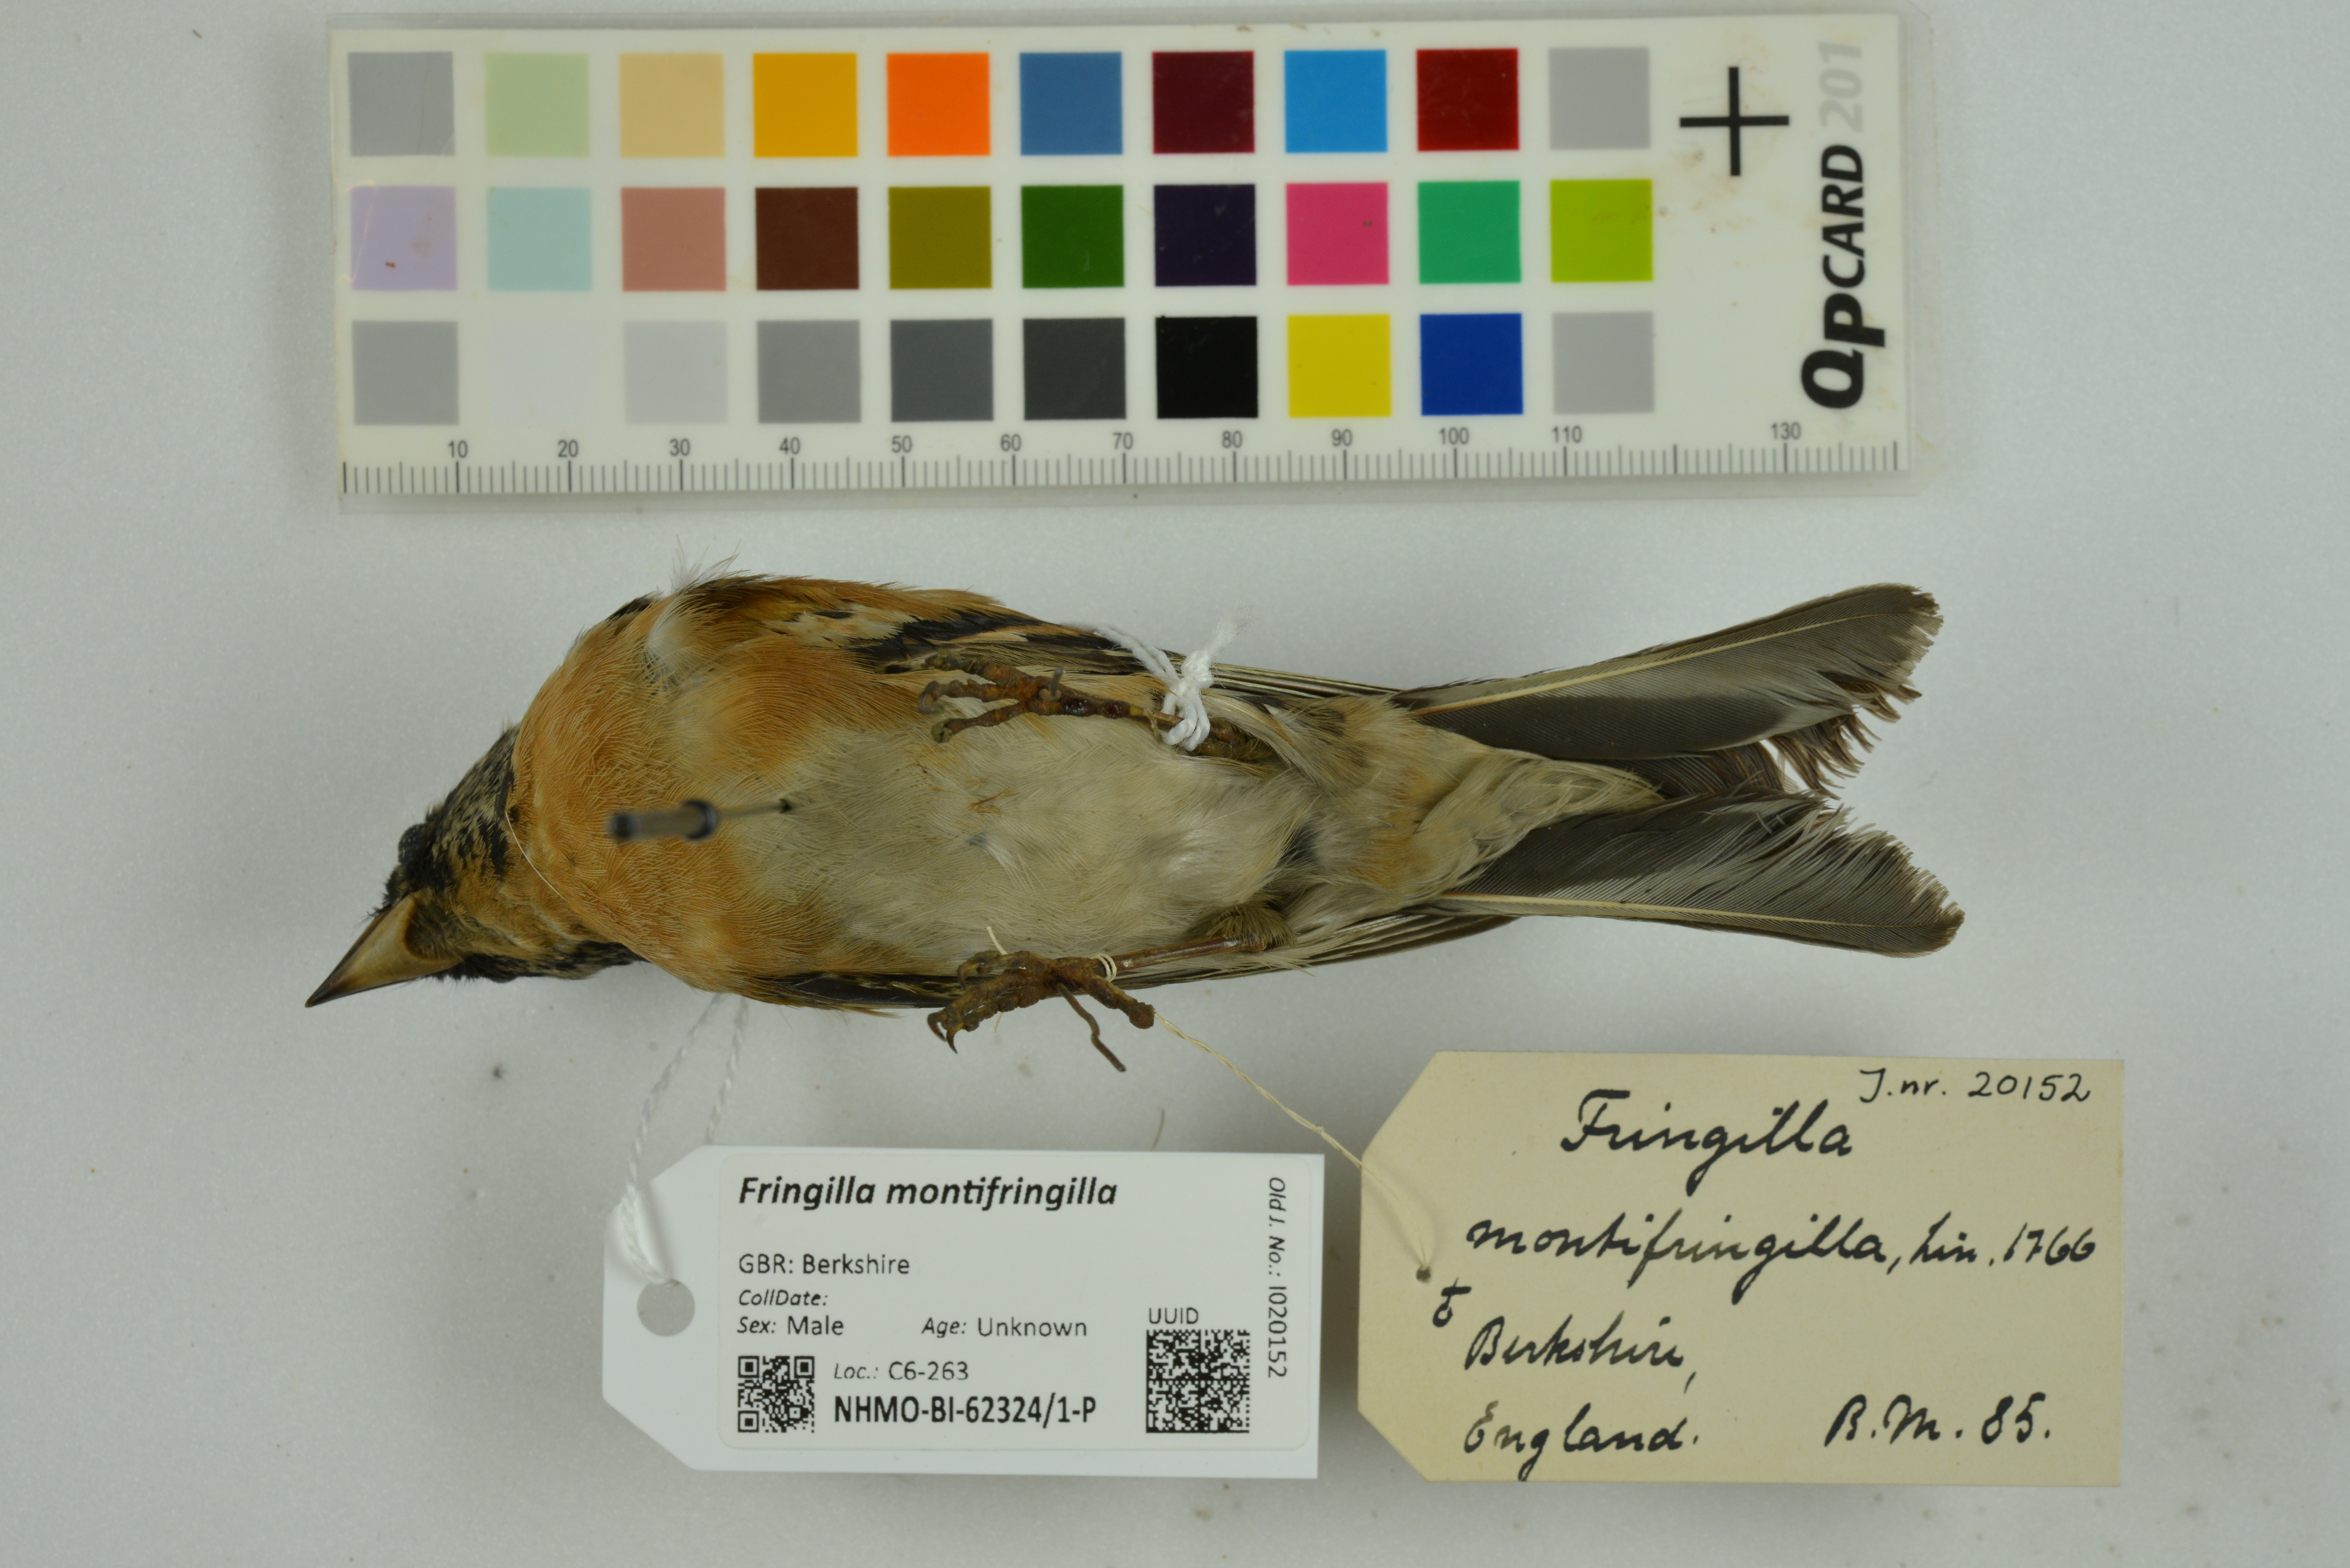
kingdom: Animalia
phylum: Chordata
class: Aves
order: Passeriformes
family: Fringillidae
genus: Fringilla
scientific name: Fringilla montifringilla
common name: Brambling
